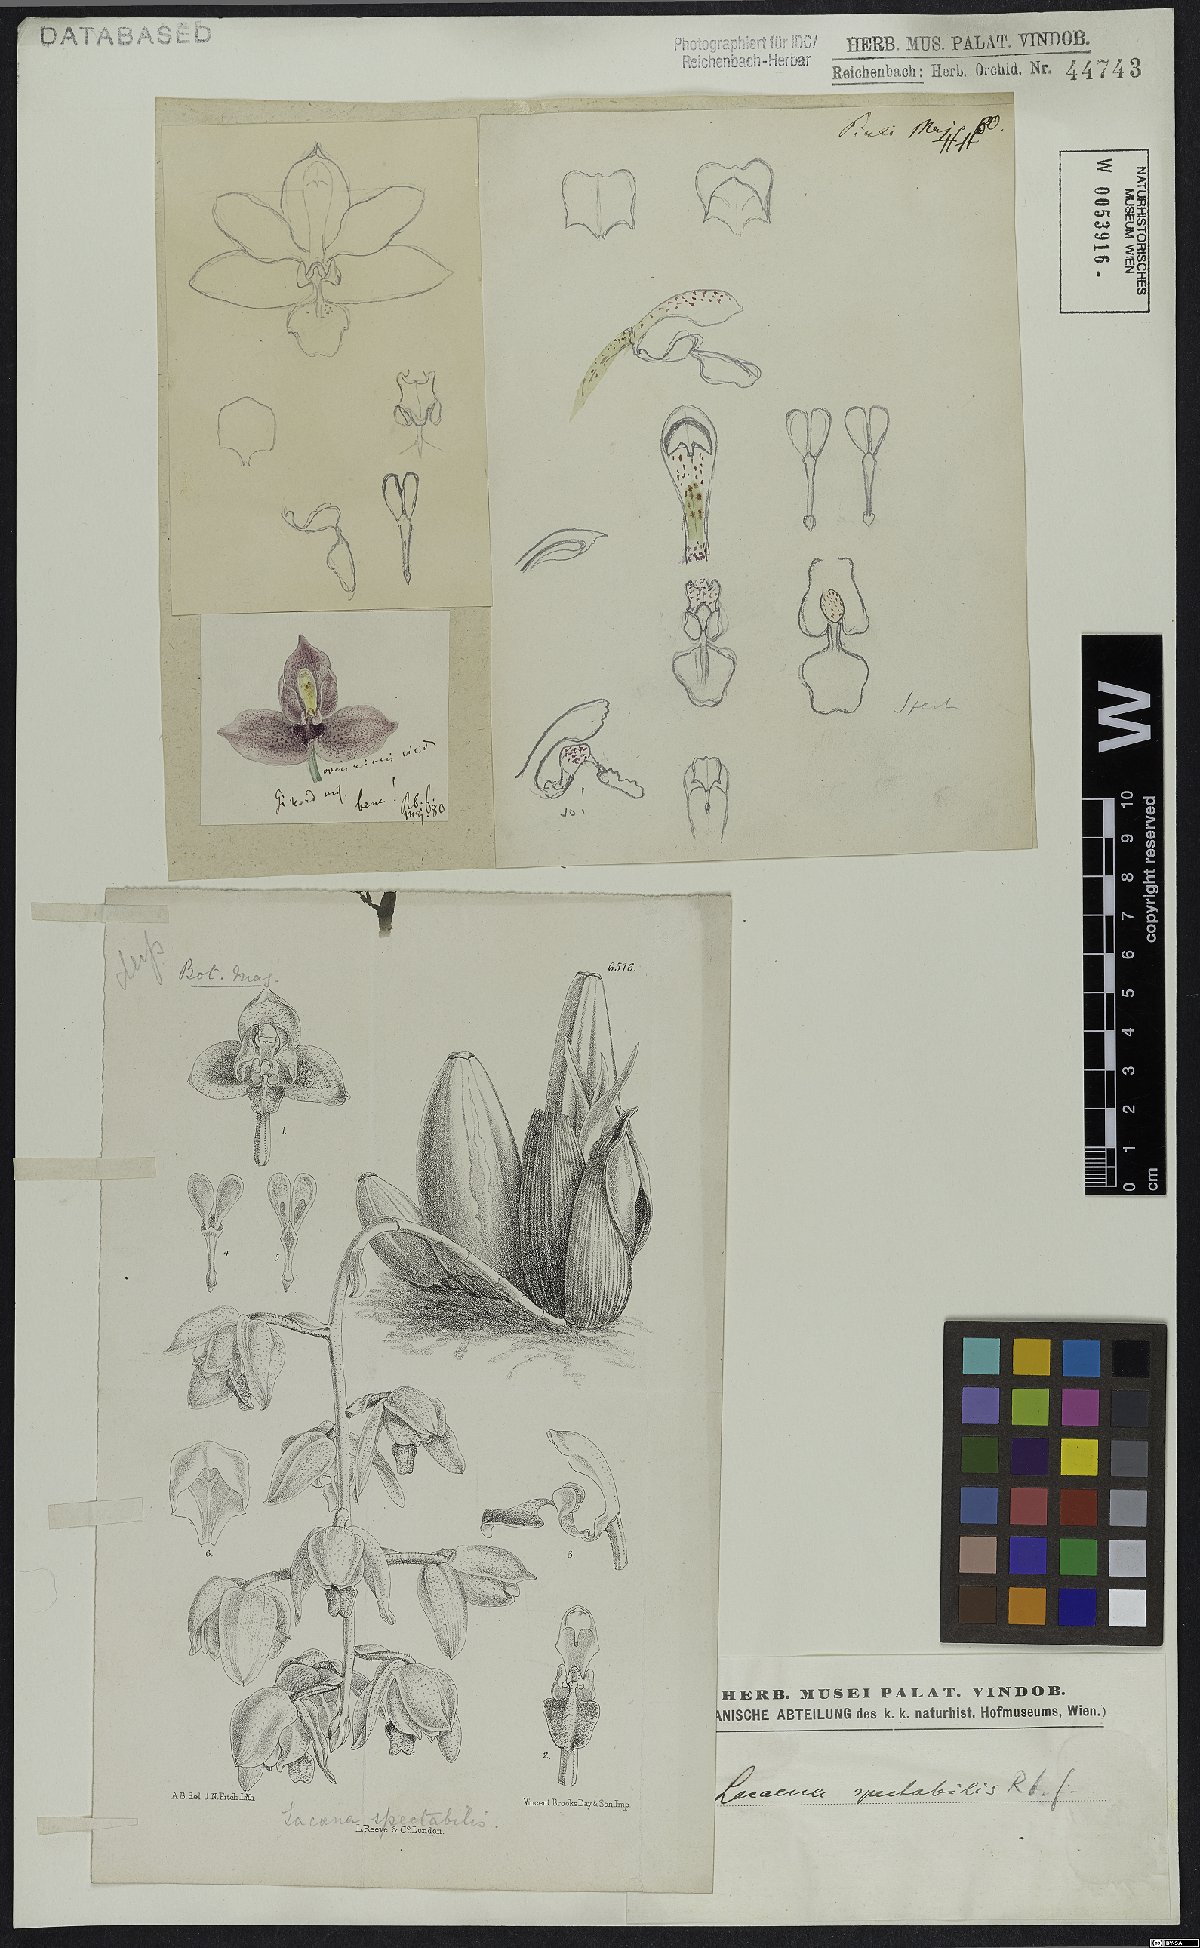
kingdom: Plantae
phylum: Tracheophyta
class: Liliopsida
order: Asparagales
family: Orchidaceae
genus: Lacaena
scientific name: Lacaena spectabilis
